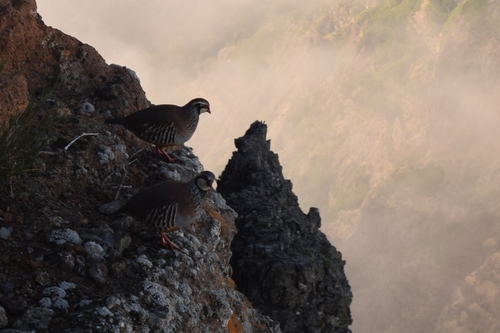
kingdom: Animalia
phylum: Chordata
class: Aves
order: Galliformes
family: Phasianidae
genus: Alectoris
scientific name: Alectoris rufa
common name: Red-legged partridge
